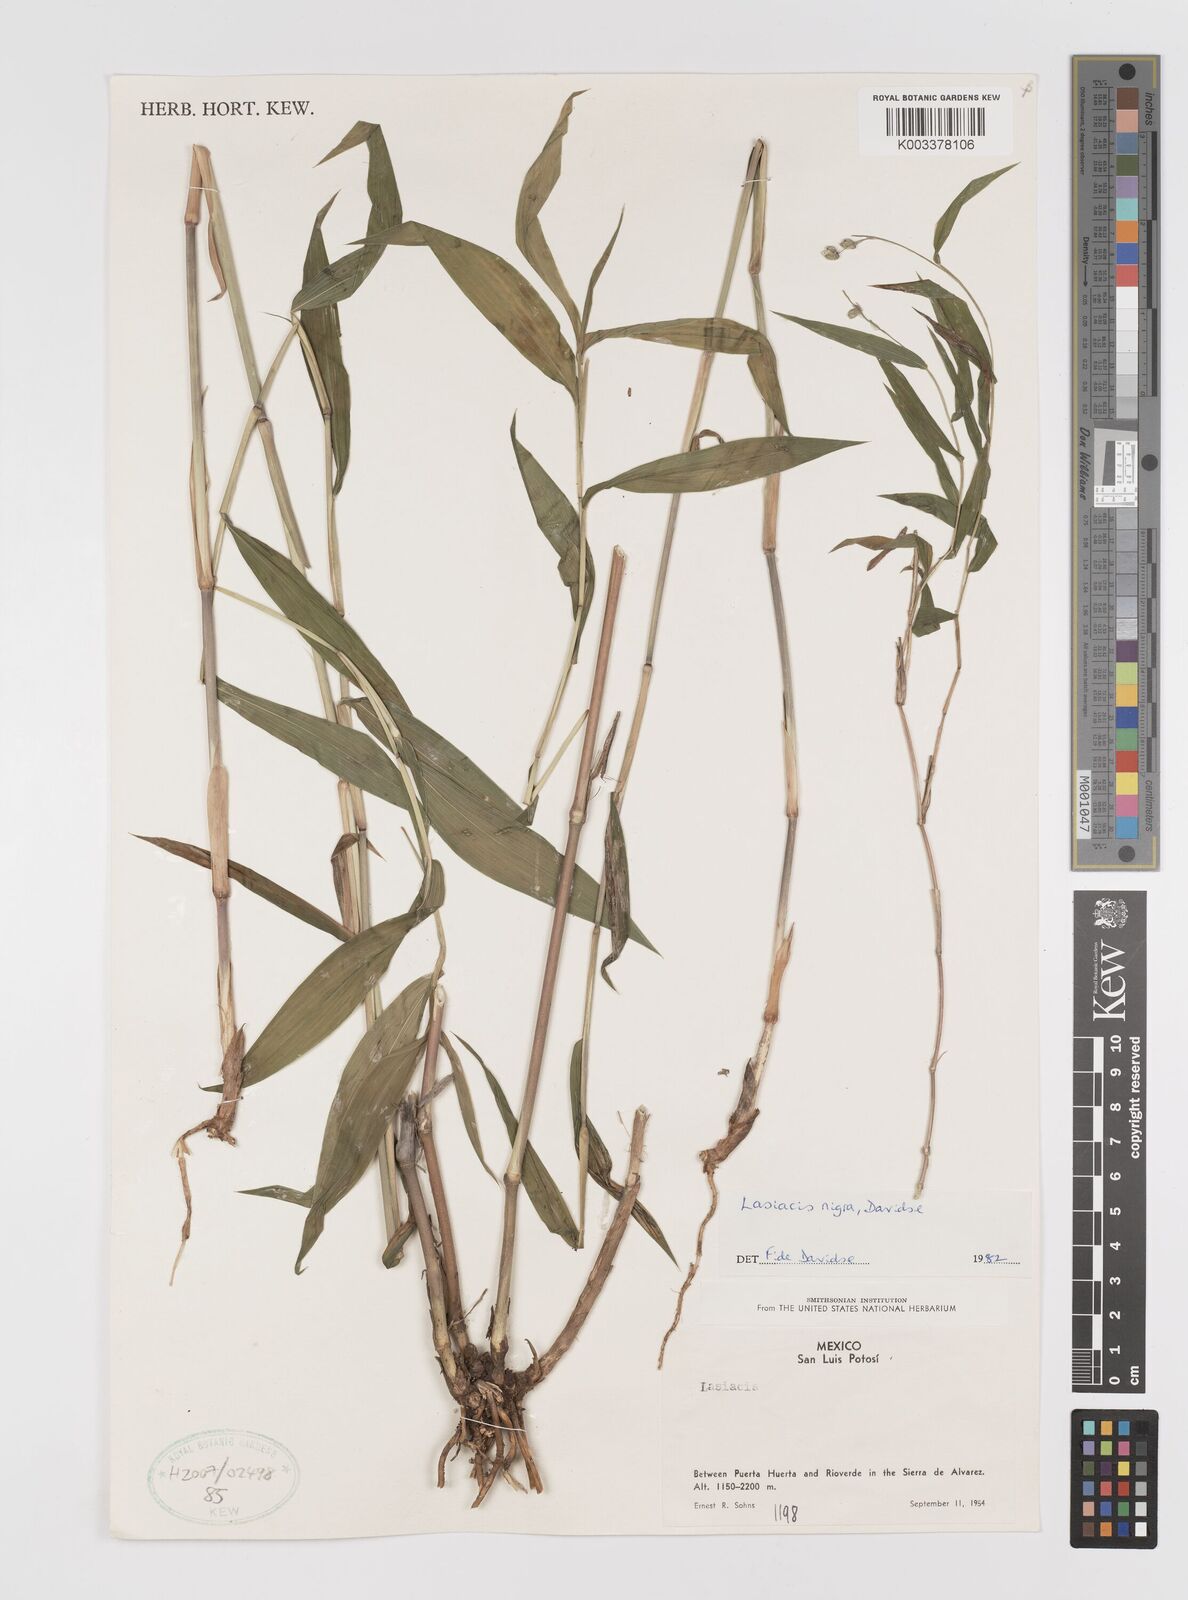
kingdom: Plantae
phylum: Tracheophyta
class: Liliopsida
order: Poales
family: Poaceae
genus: Lasiacis
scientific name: Lasiacis nigra
